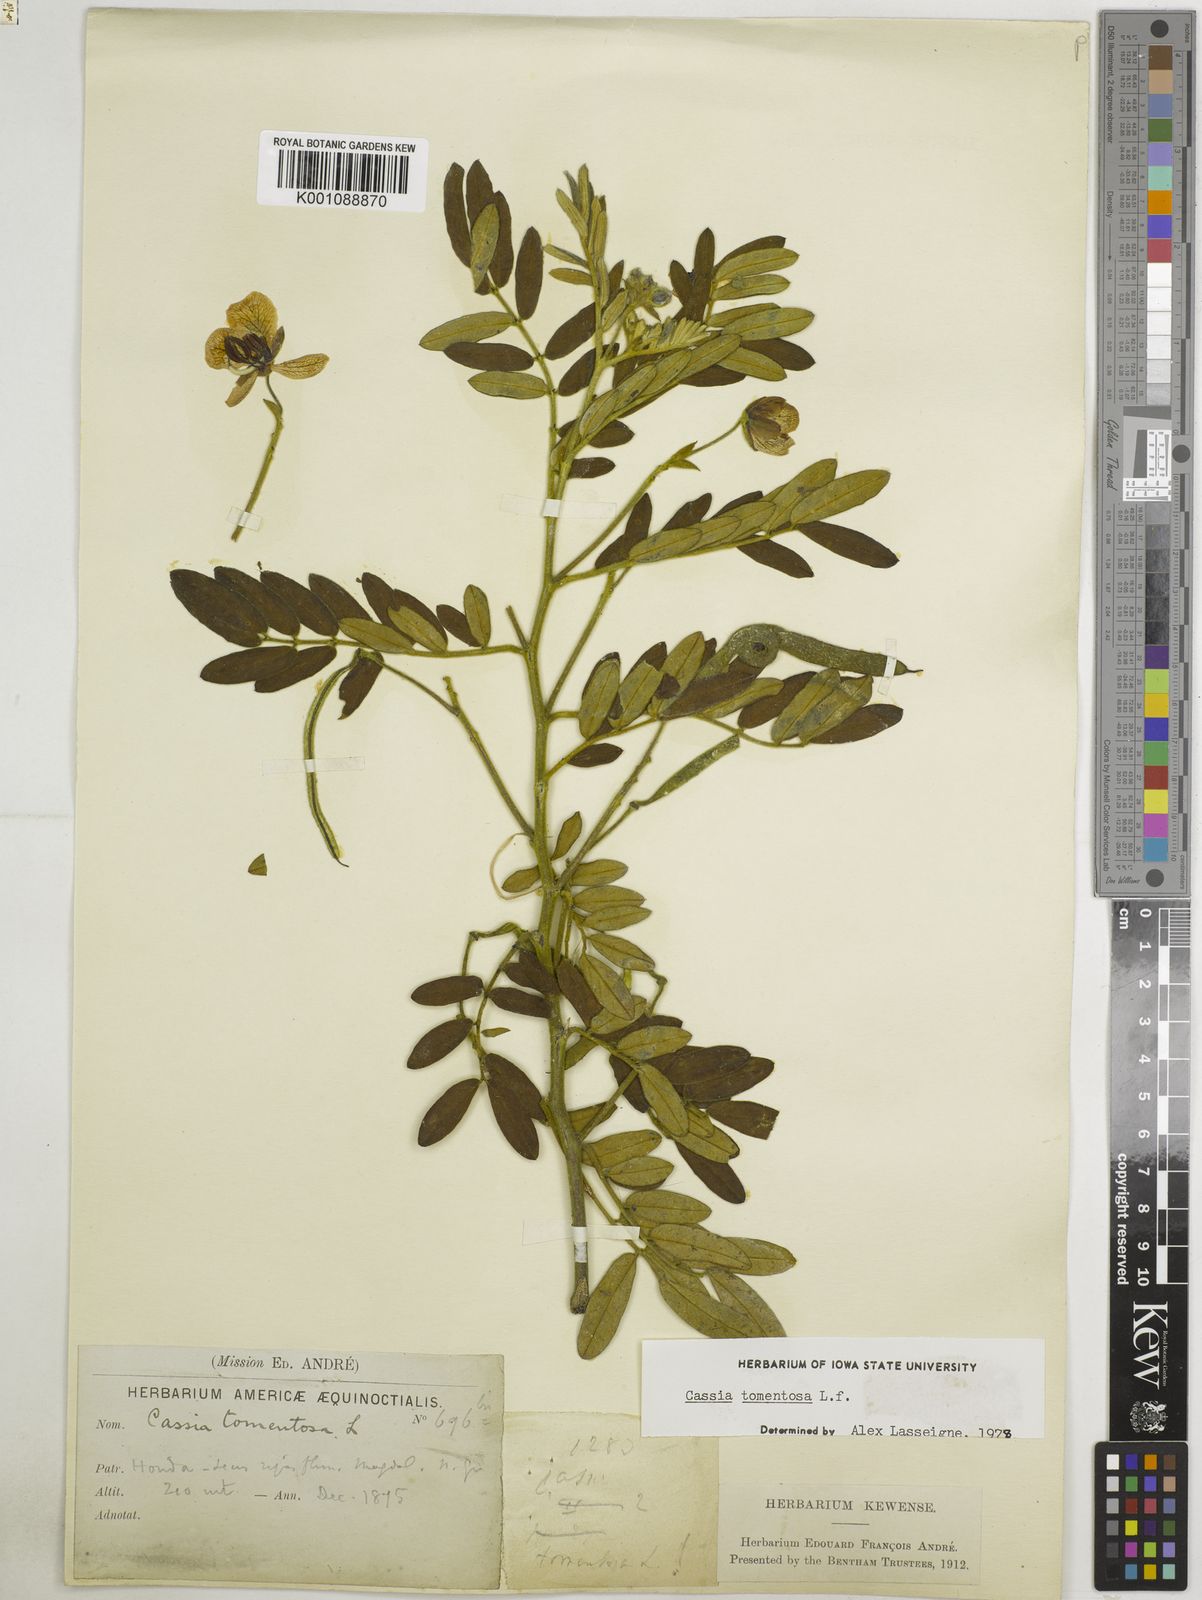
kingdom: Plantae
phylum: Tracheophyta
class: Magnoliopsida
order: Fabales
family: Fabaceae
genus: Senna
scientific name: Senna multiglandulosa
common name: Glandular senna
